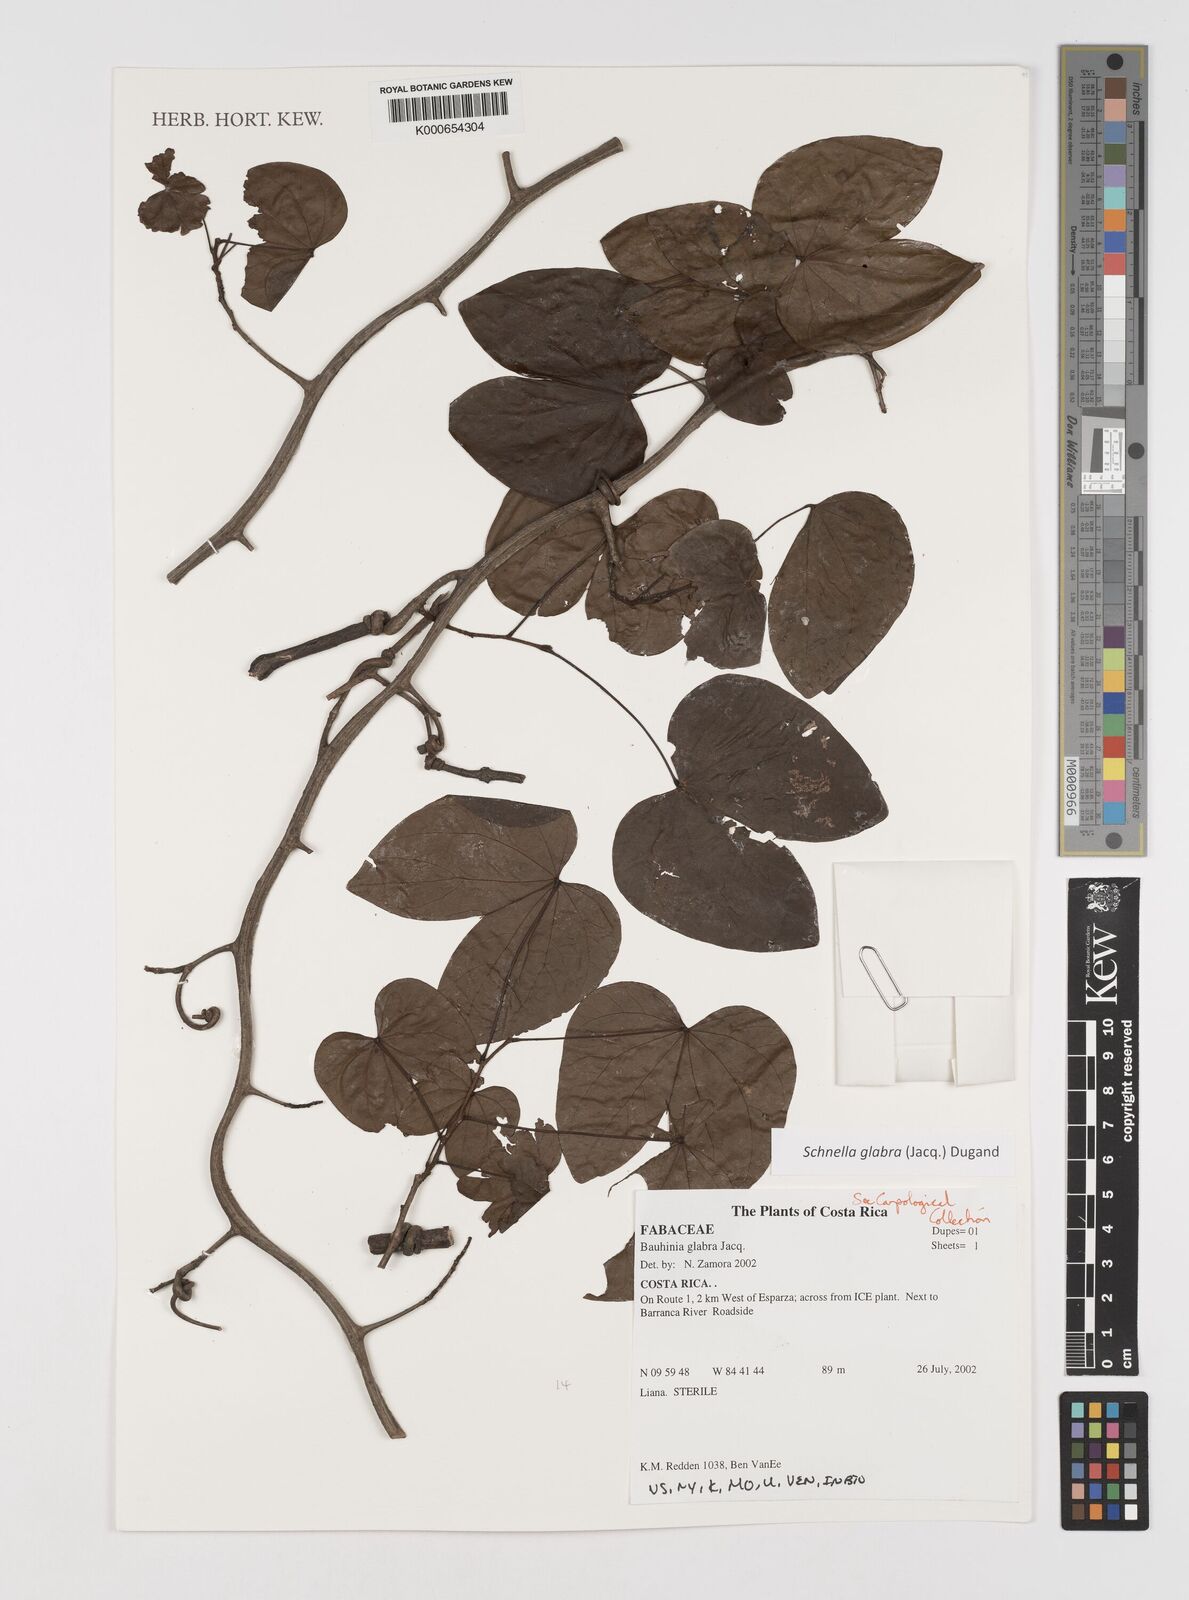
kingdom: Plantae
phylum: Tracheophyta
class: Magnoliopsida
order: Fabales
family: Fabaceae
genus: Schnella
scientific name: Schnella glabra
